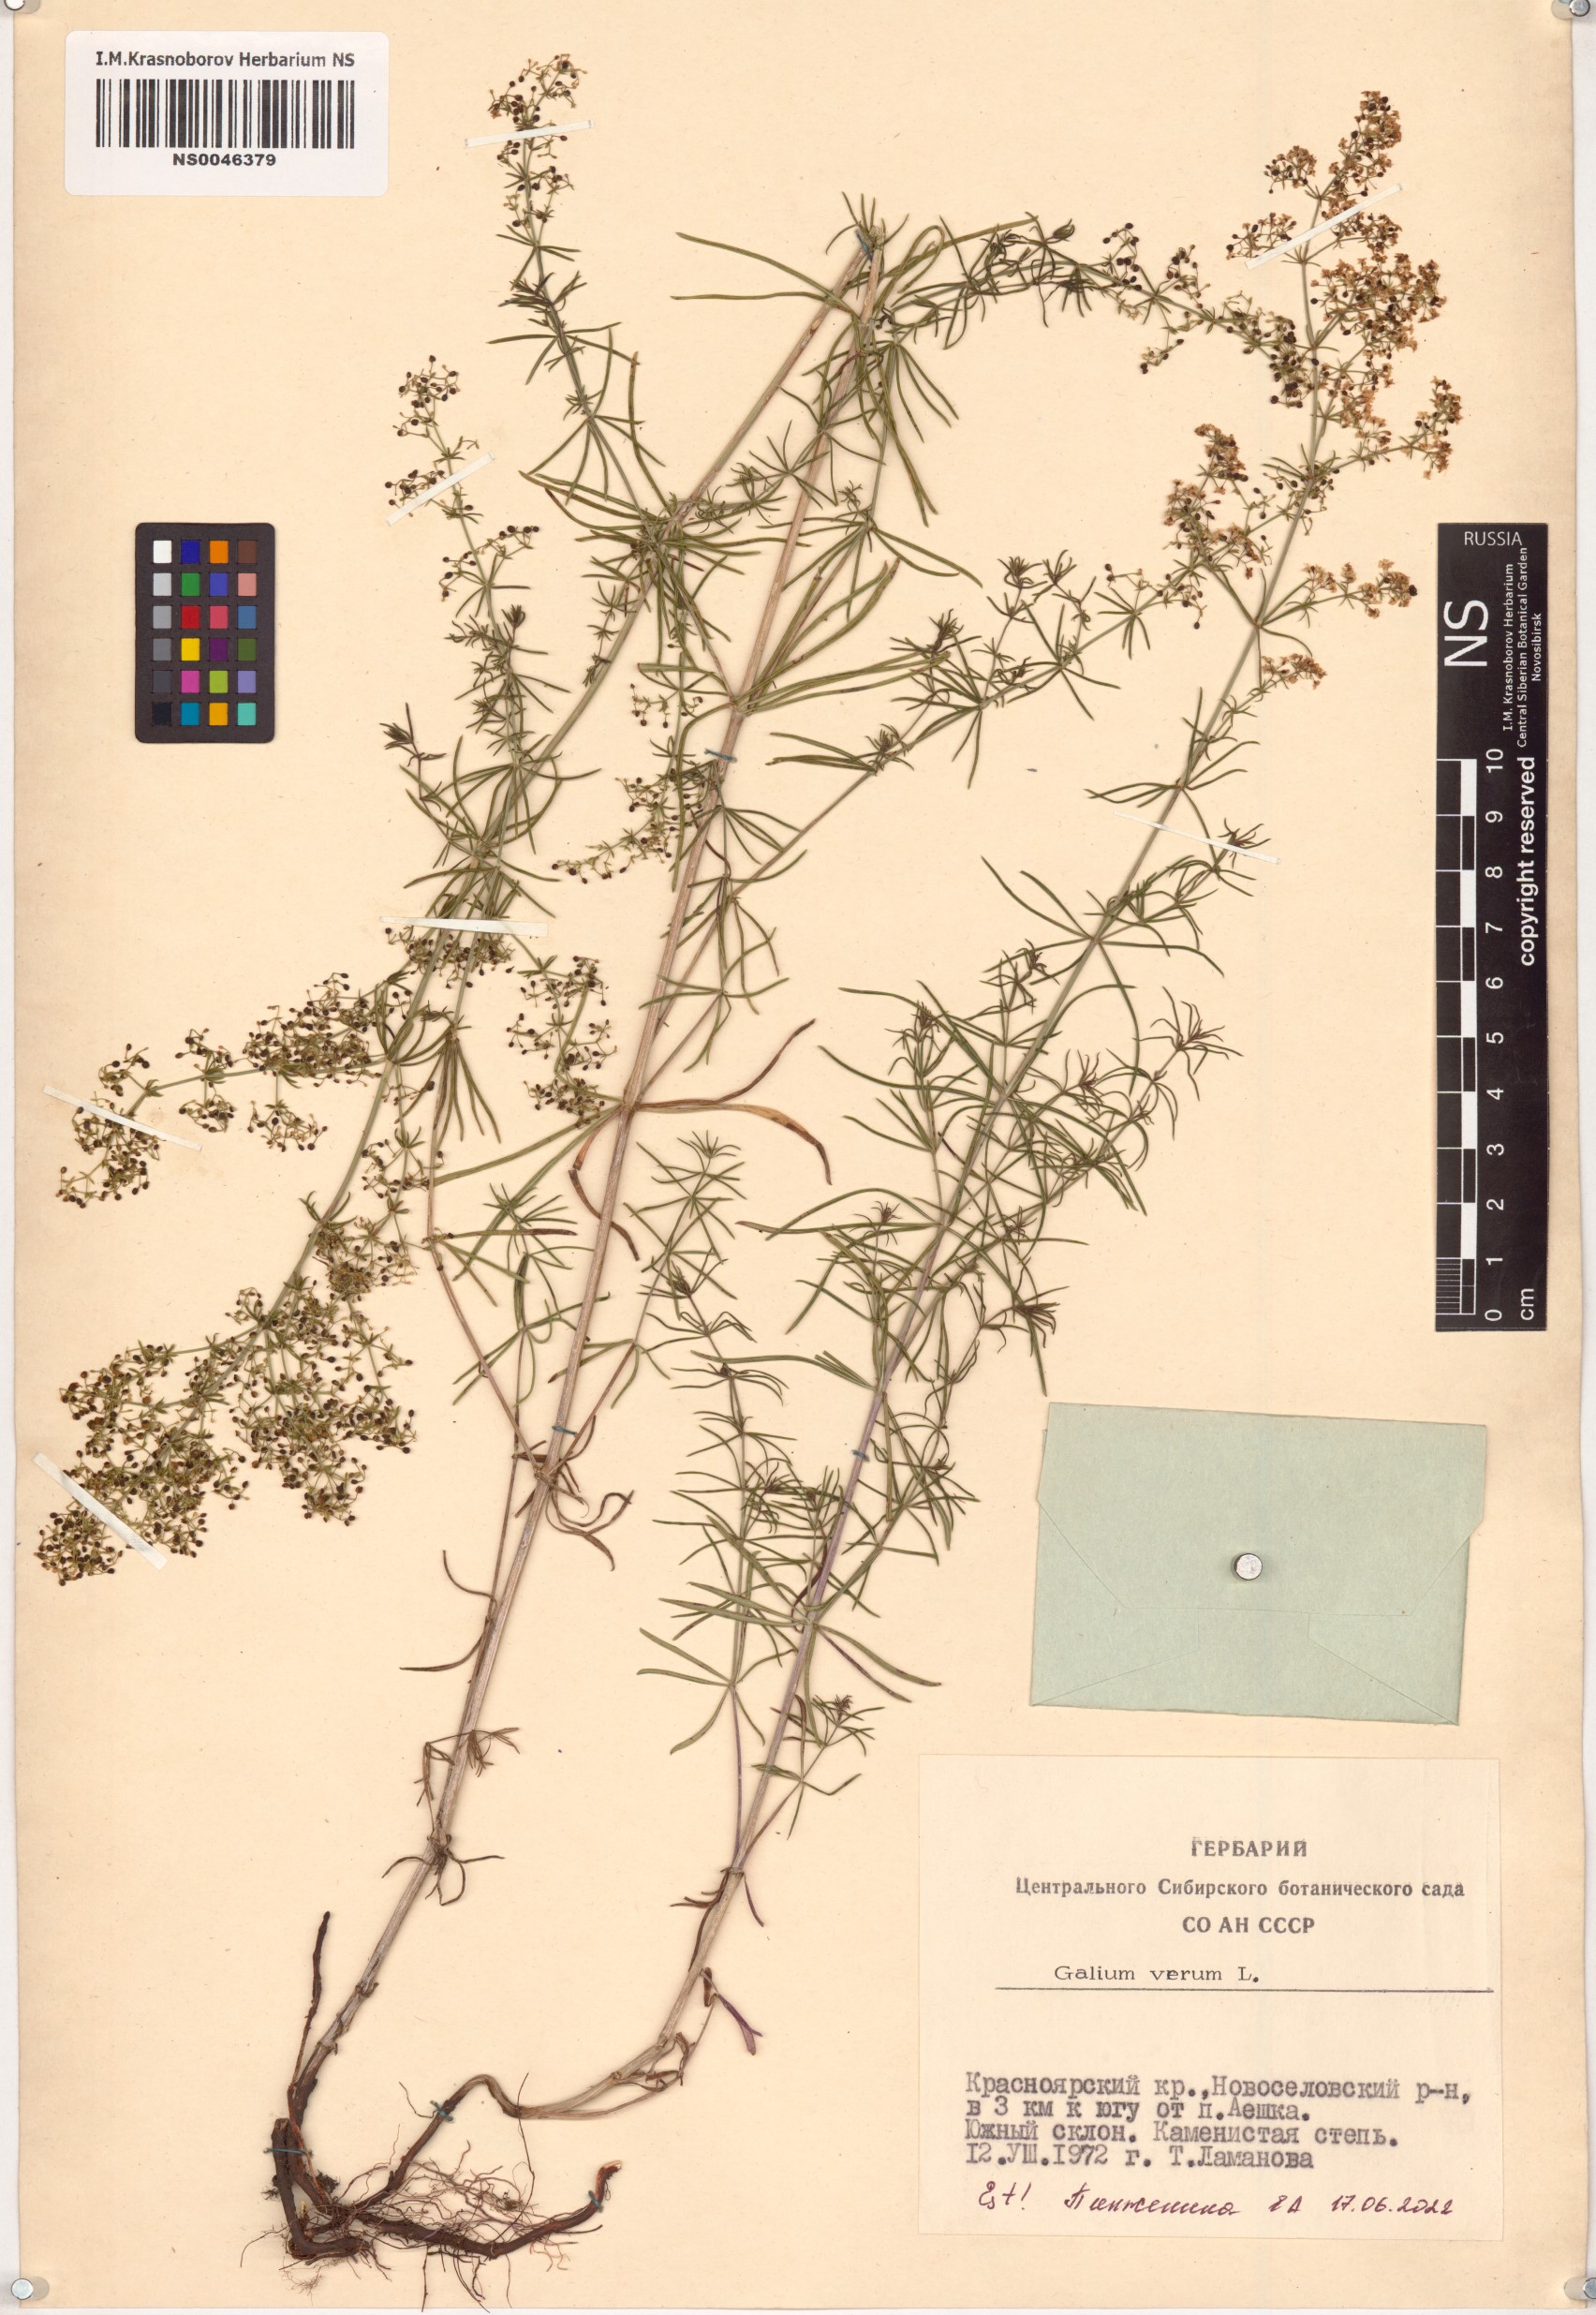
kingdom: Plantae
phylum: Tracheophyta
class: Magnoliopsida
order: Gentianales
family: Rubiaceae
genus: Galium
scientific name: Galium verum
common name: Lady's bedstraw
